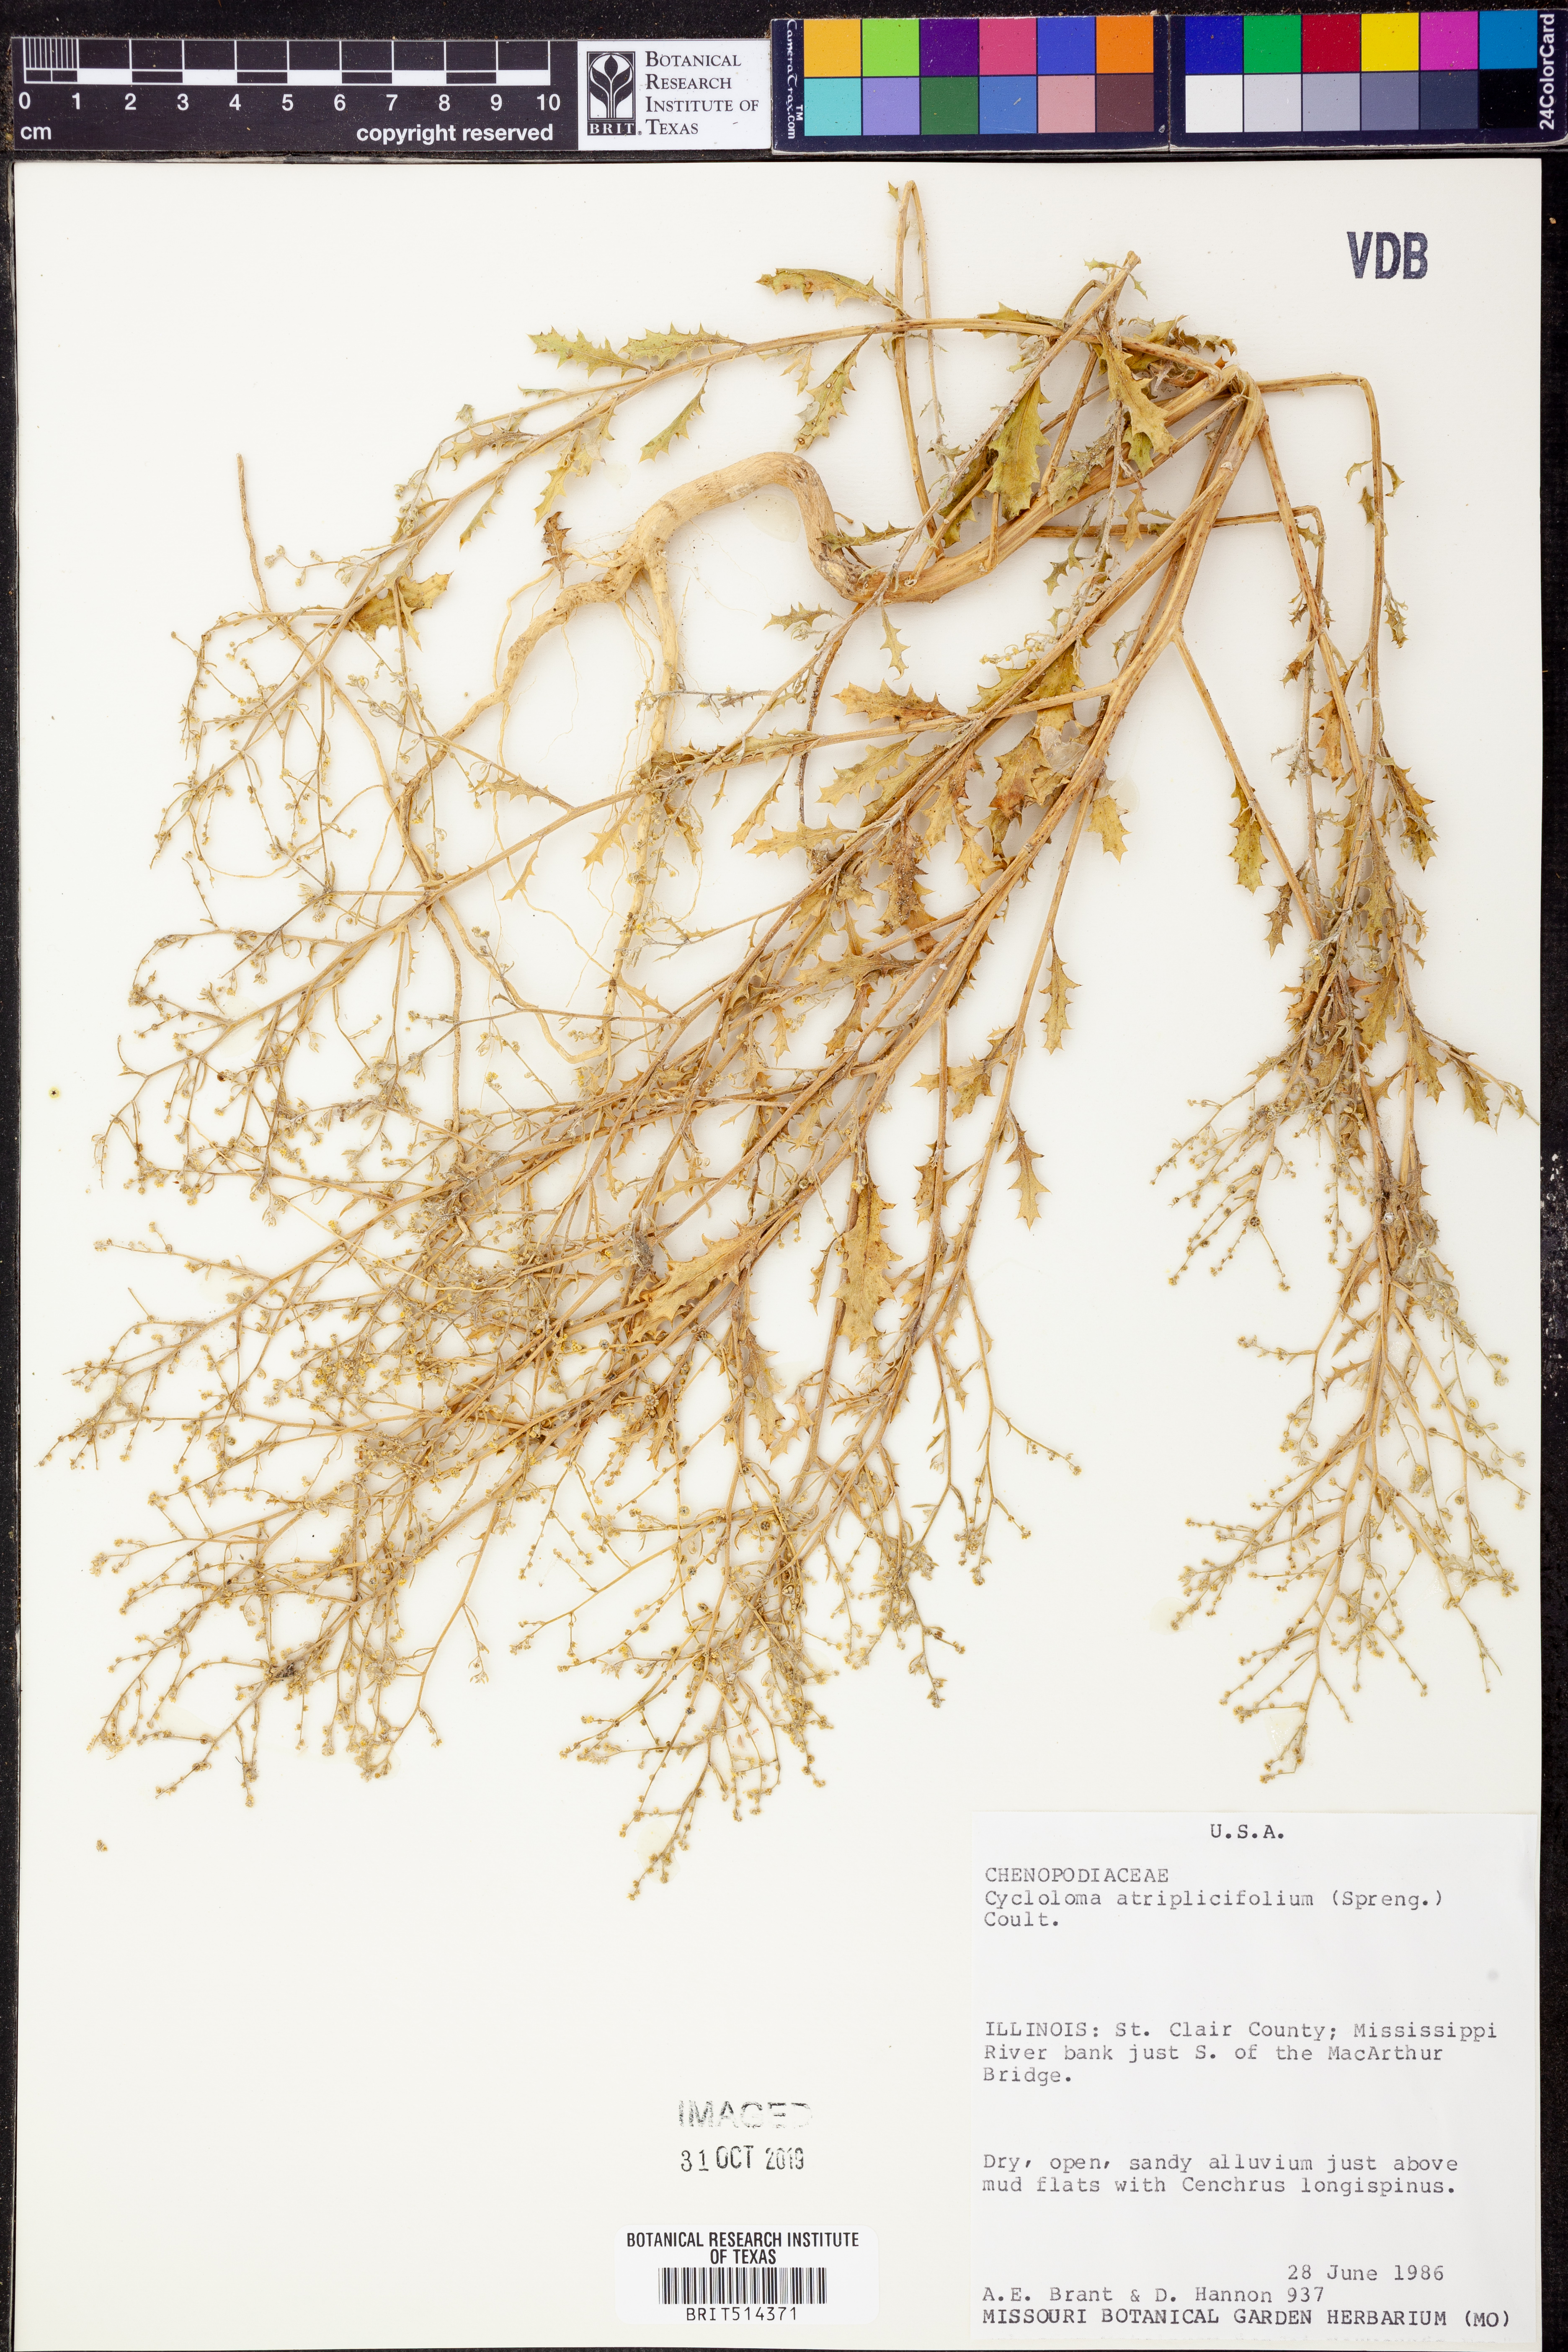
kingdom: Plantae
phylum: Tracheophyta
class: Magnoliopsida
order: Caryophyllales
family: Amaranthaceae
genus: Dysphania
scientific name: Dysphania atriplicifolia
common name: Plains tumbleweed
